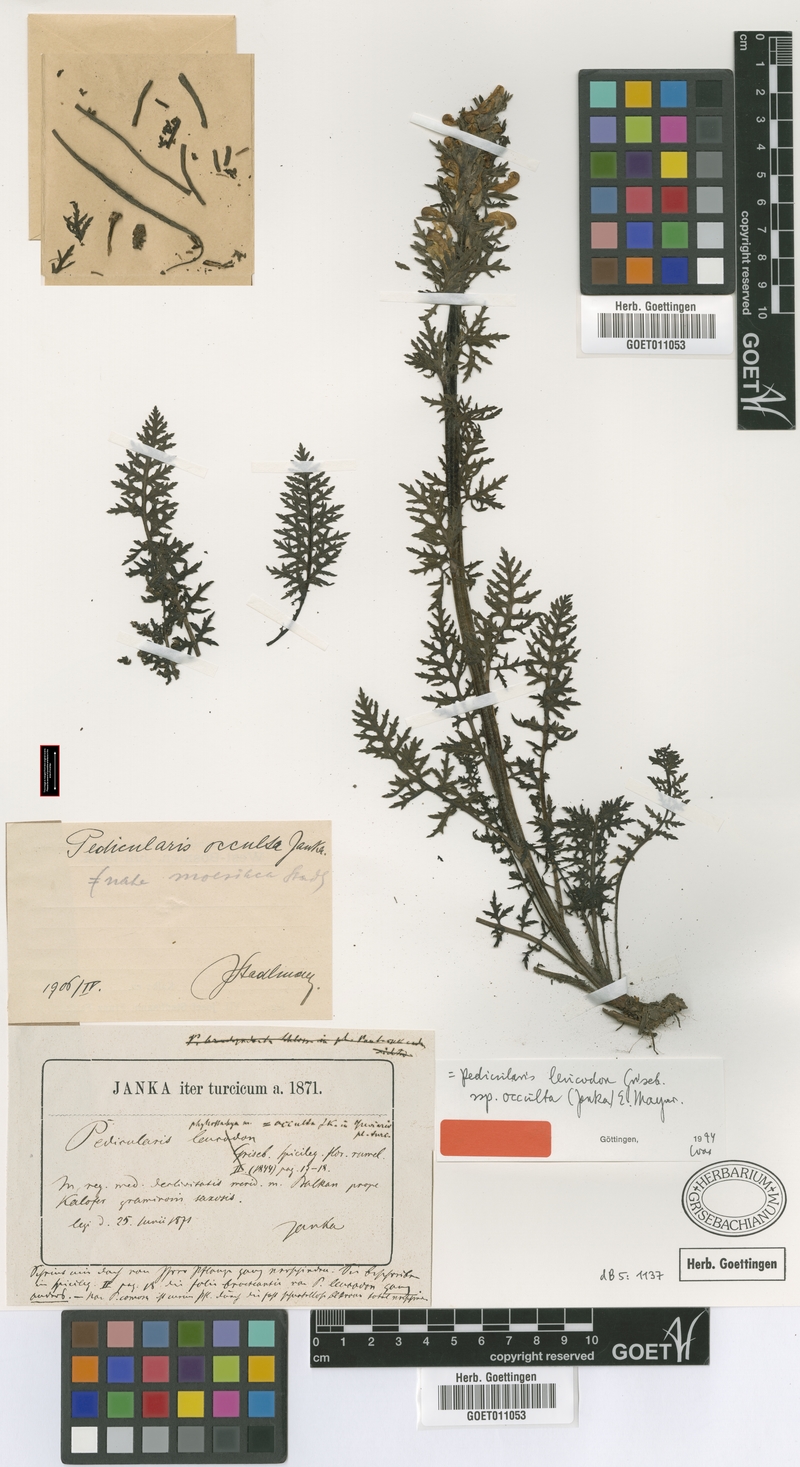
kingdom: Plantae
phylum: Tracheophyta
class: Magnoliopsida
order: Lamiales
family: Orobanchaceae
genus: Pedicularis
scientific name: Pedicularis leucodon
